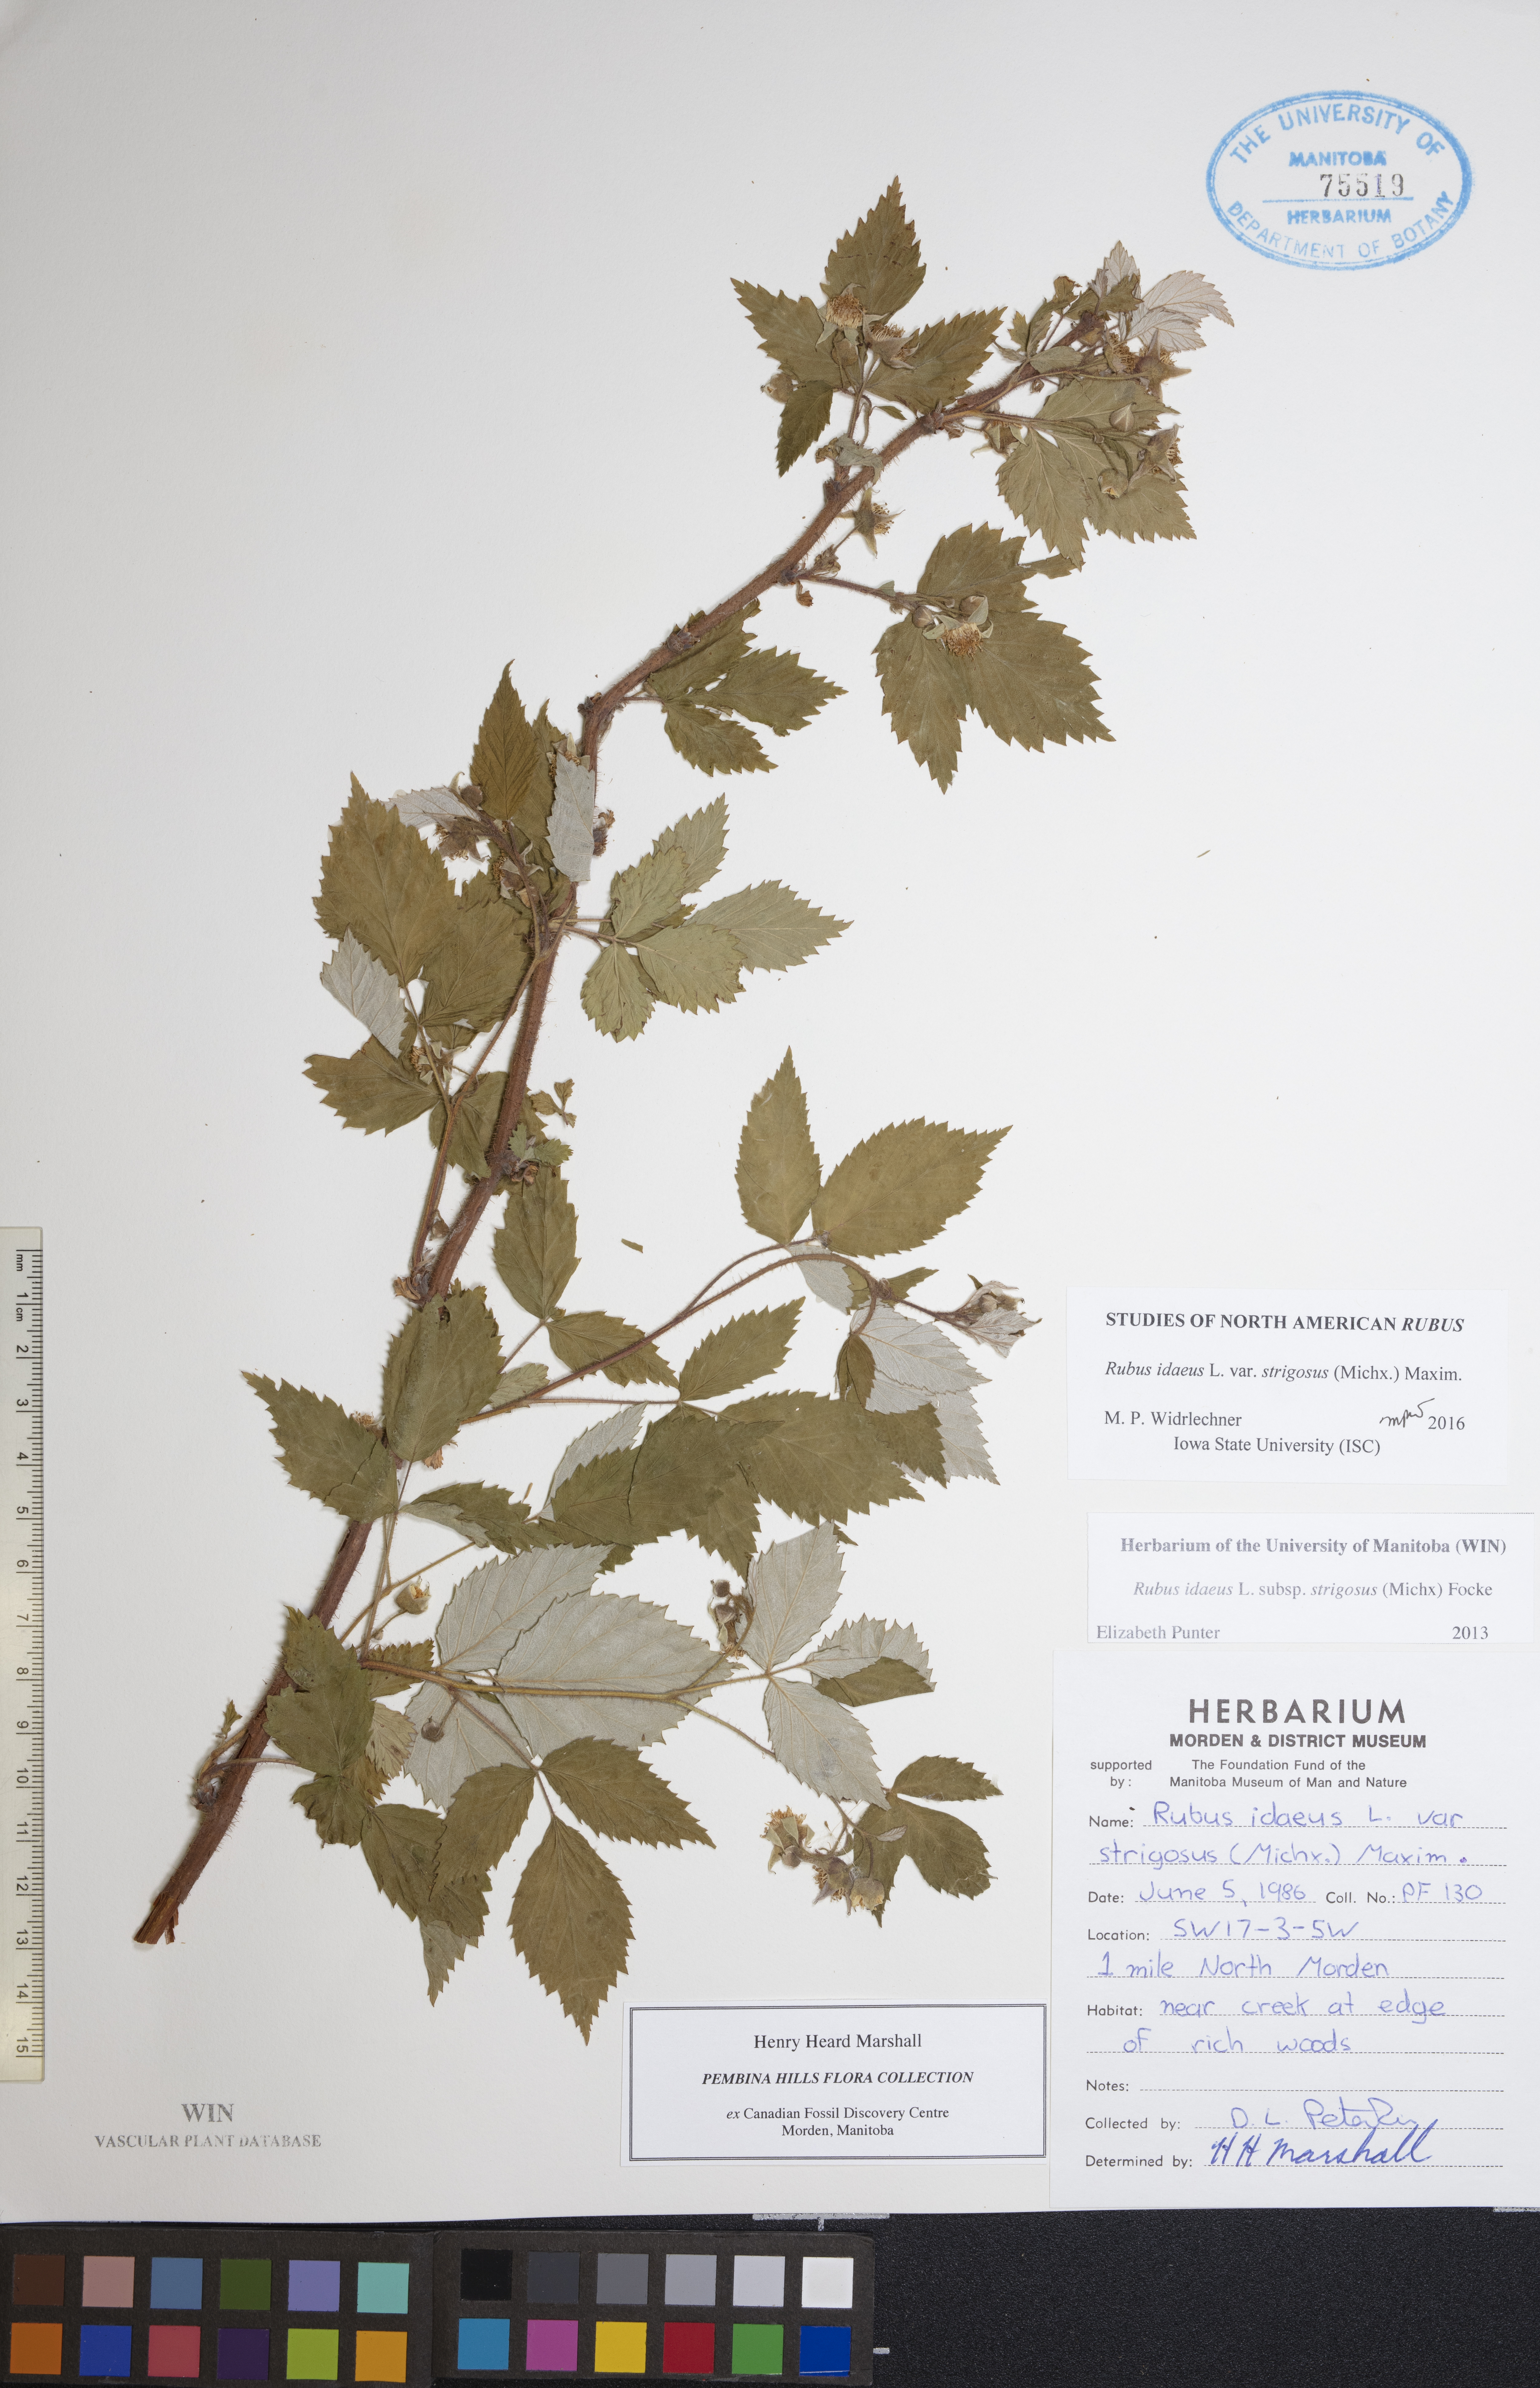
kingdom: Plantae
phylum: Tracheophyta
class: Magnoliopsida
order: Rosales
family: Rosaceae
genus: Rubus
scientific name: Rubus idaeus
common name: Raspberry
